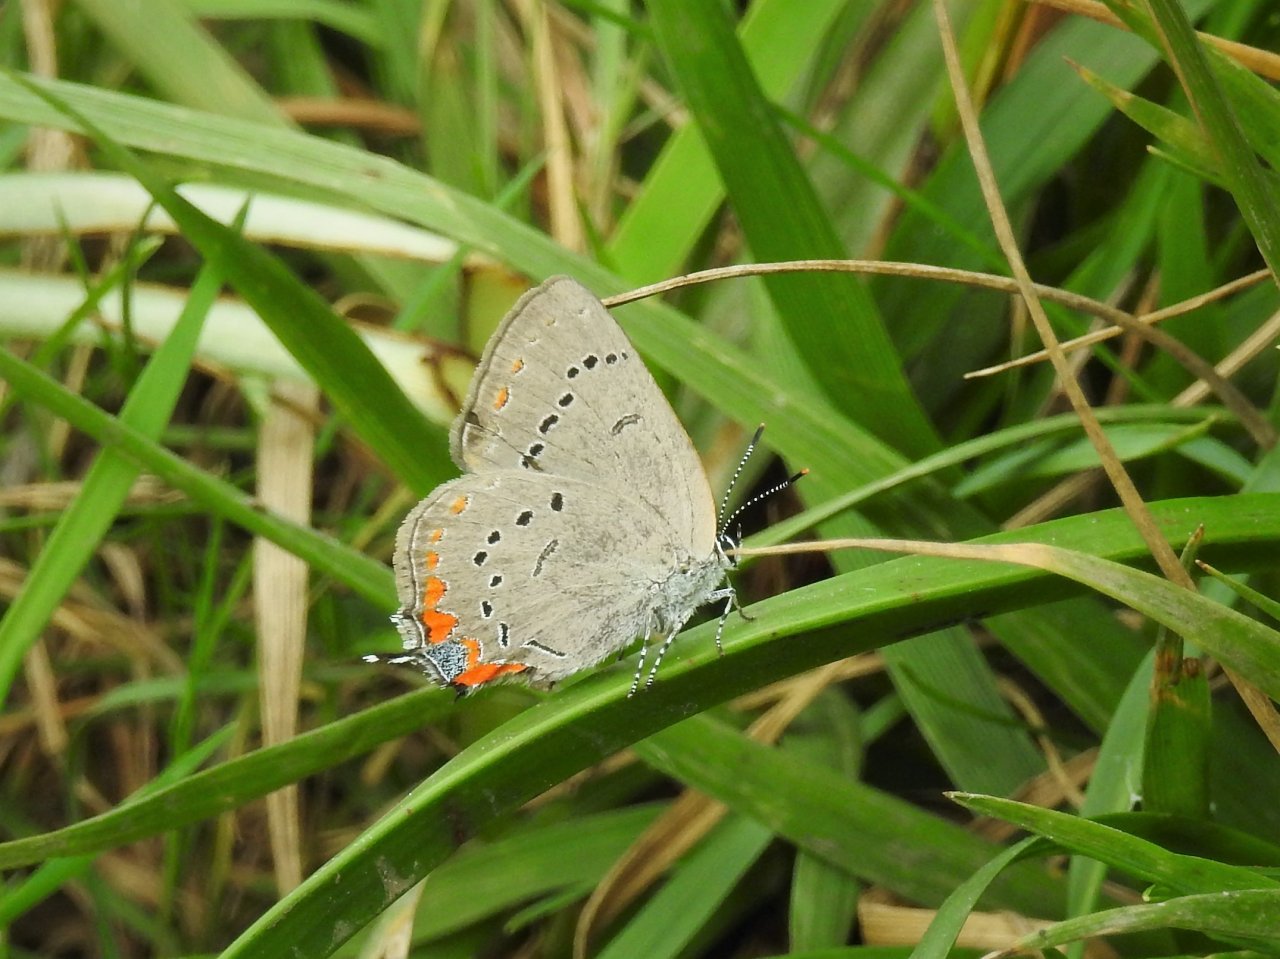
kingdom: Animalia
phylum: Arthropoda
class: Insecta
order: Lepidoptera
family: Lycaenidae
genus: Strymon
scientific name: Strymon acadica
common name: Acadian Hairstreak
